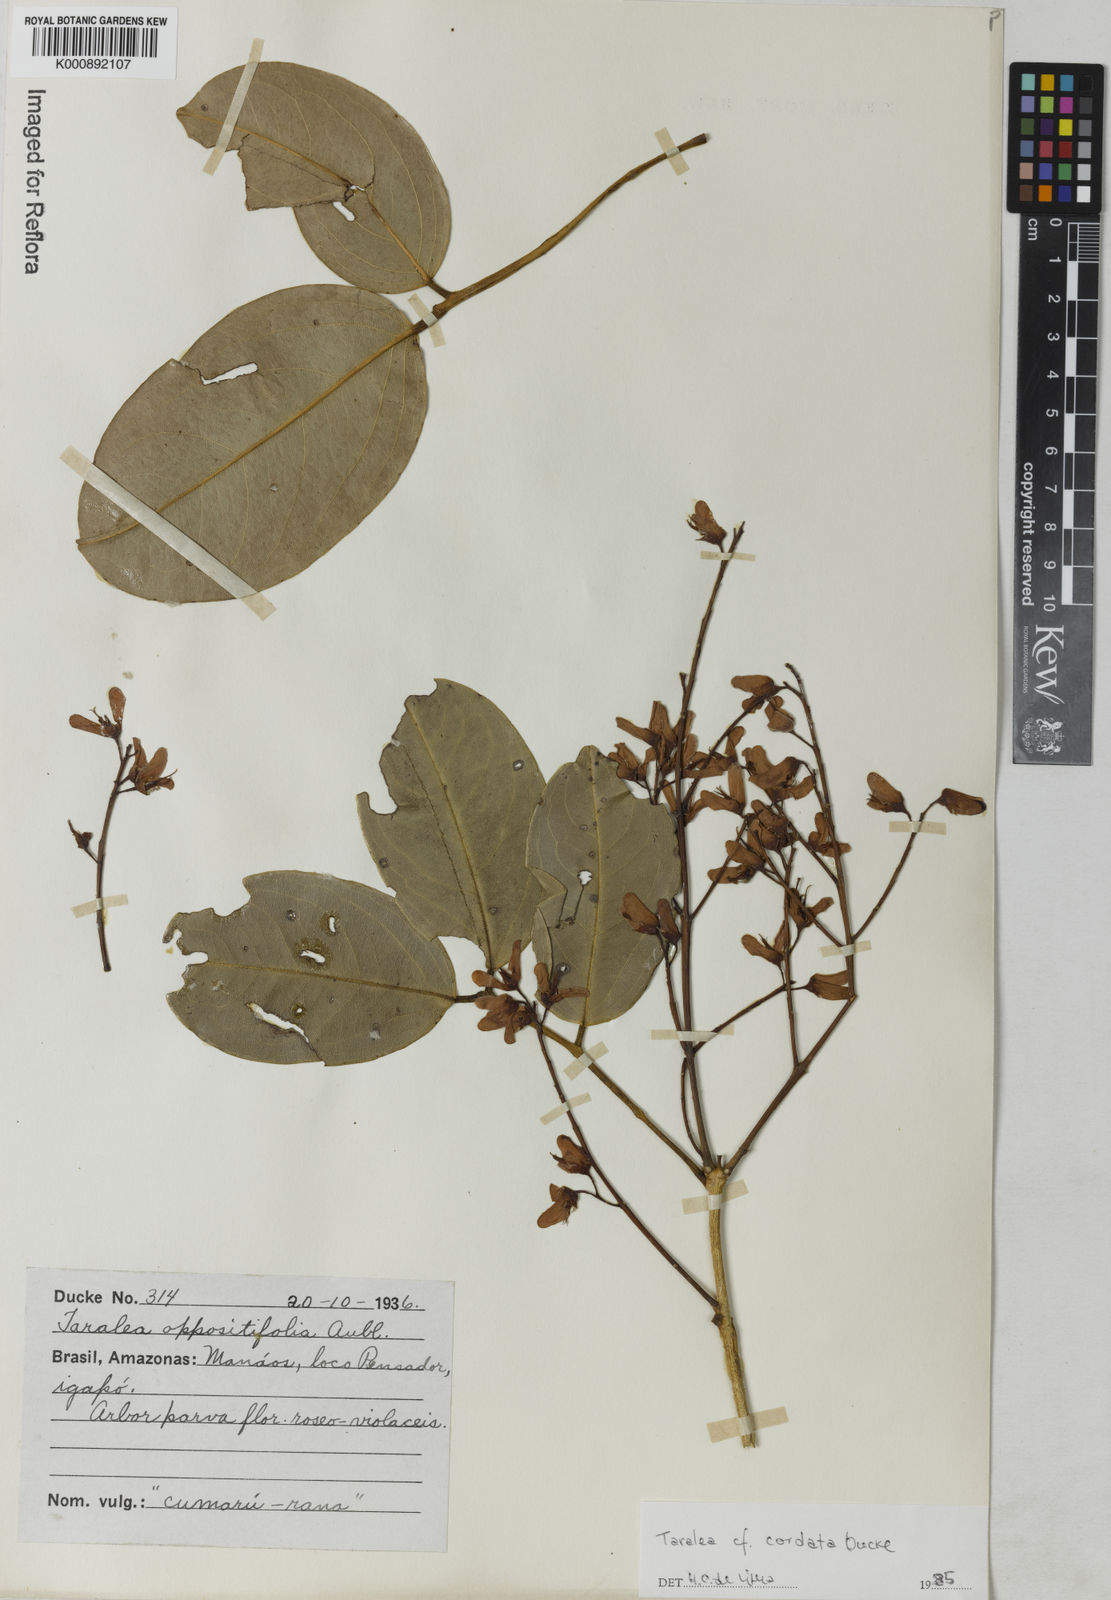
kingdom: Plantae
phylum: Tracheophyta
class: Magnoliopsida
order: Fabales
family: Fabaceae
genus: Taralea
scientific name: Taralea cordata
